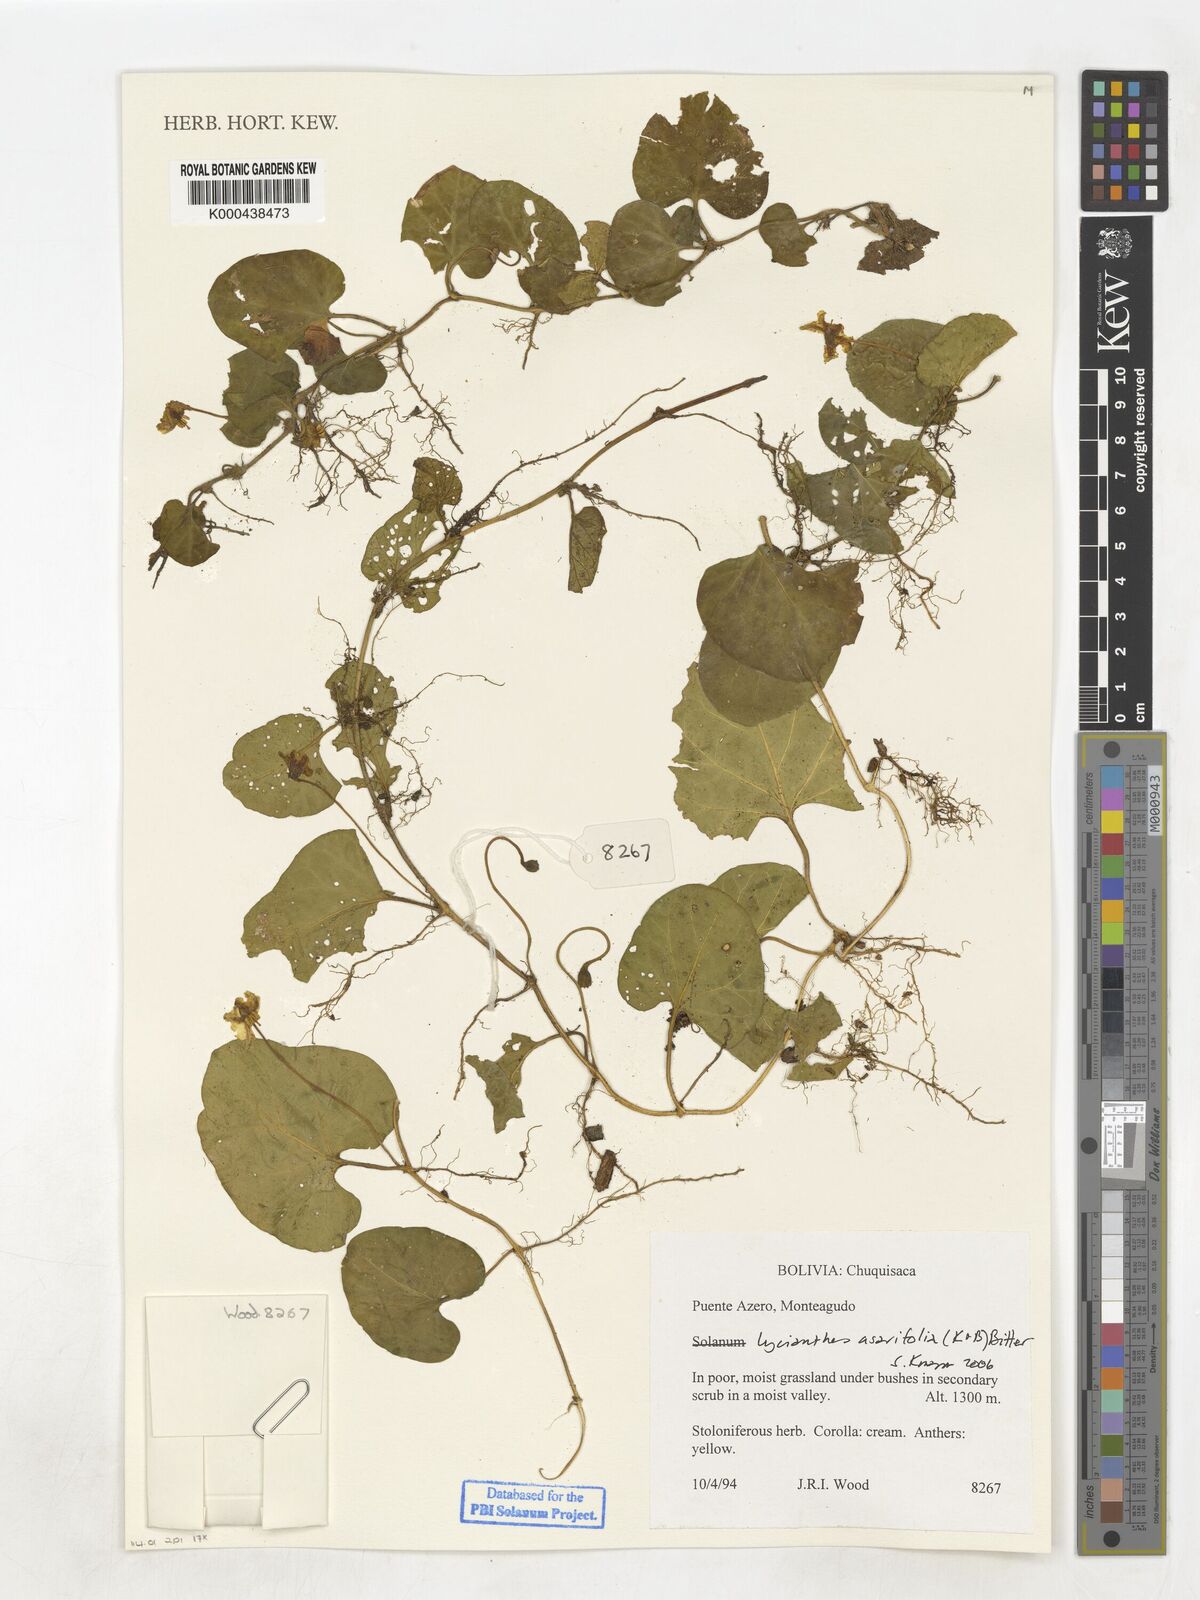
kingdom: Plantae
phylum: Tracheophyta
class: Magnoliopsida
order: Solanales
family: Solanaceae
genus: Lycianthes
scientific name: Lycianthes
